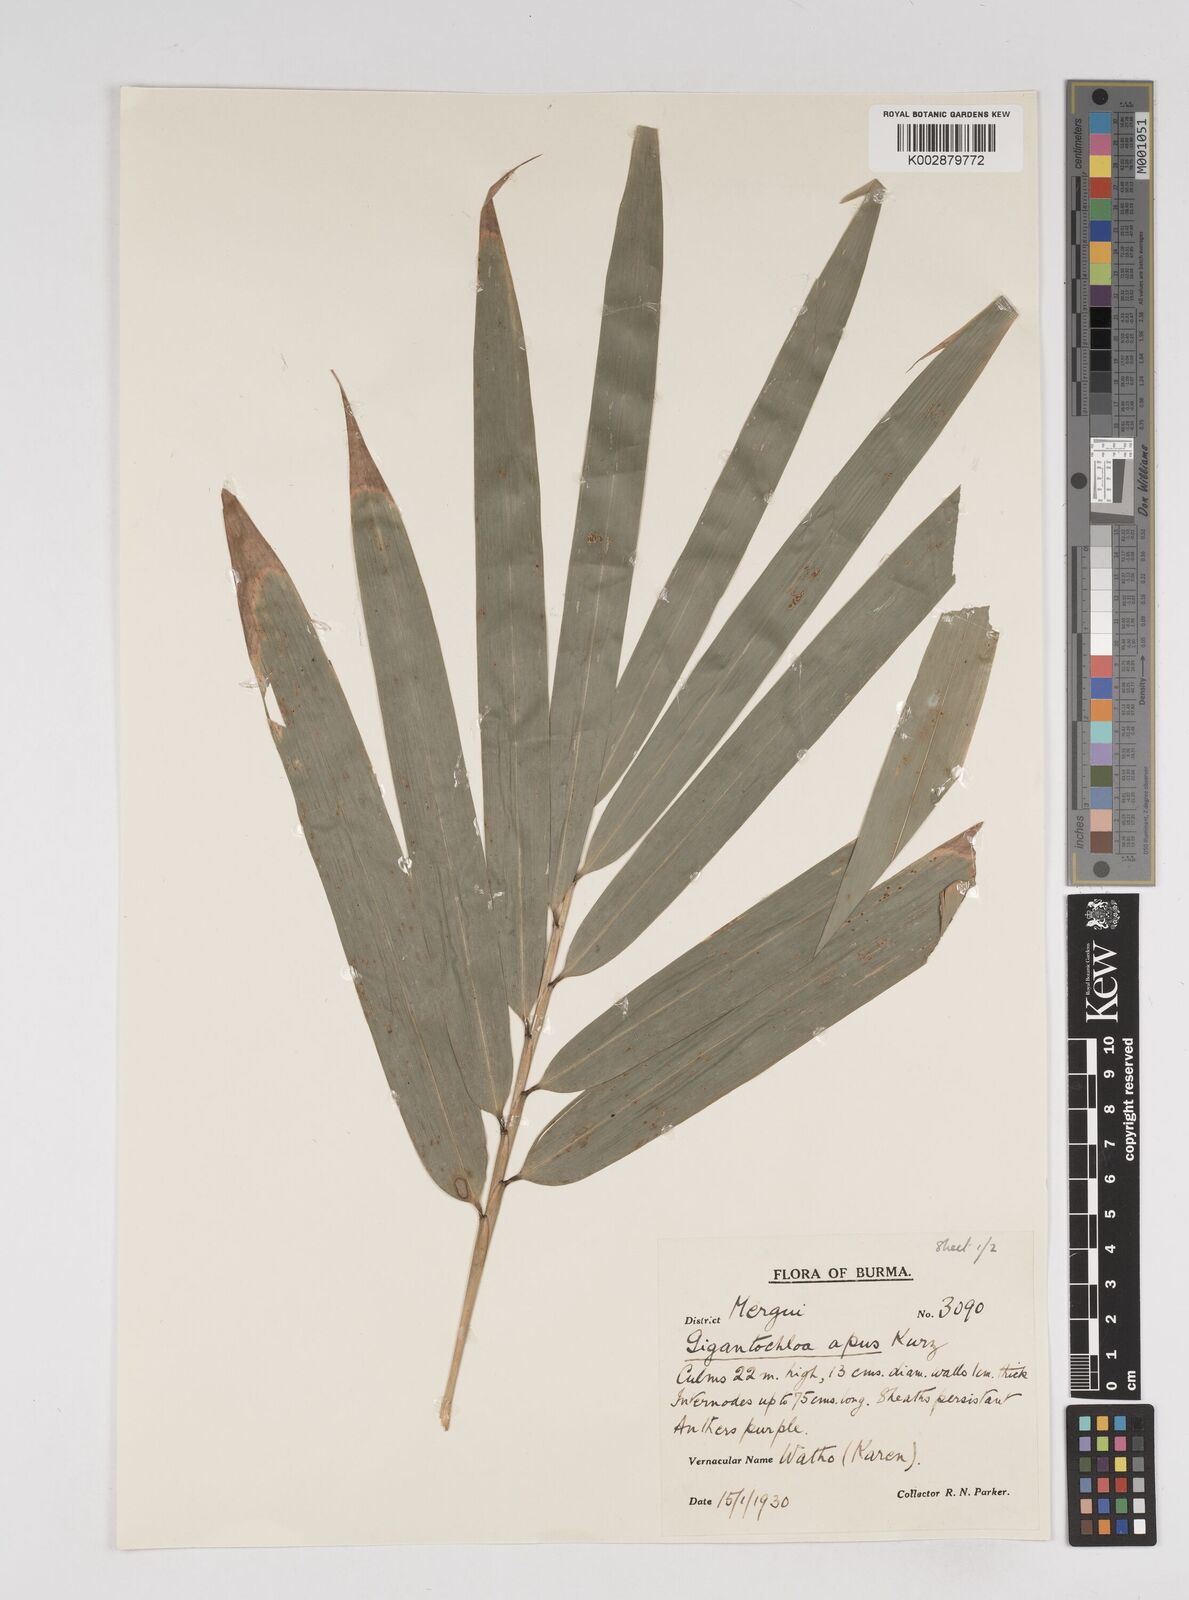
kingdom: Plantae
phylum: Tracheophyta
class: Liliopsida
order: Poales
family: Poaceae
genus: Gigantochloa
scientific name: Gigantochloa compressa
